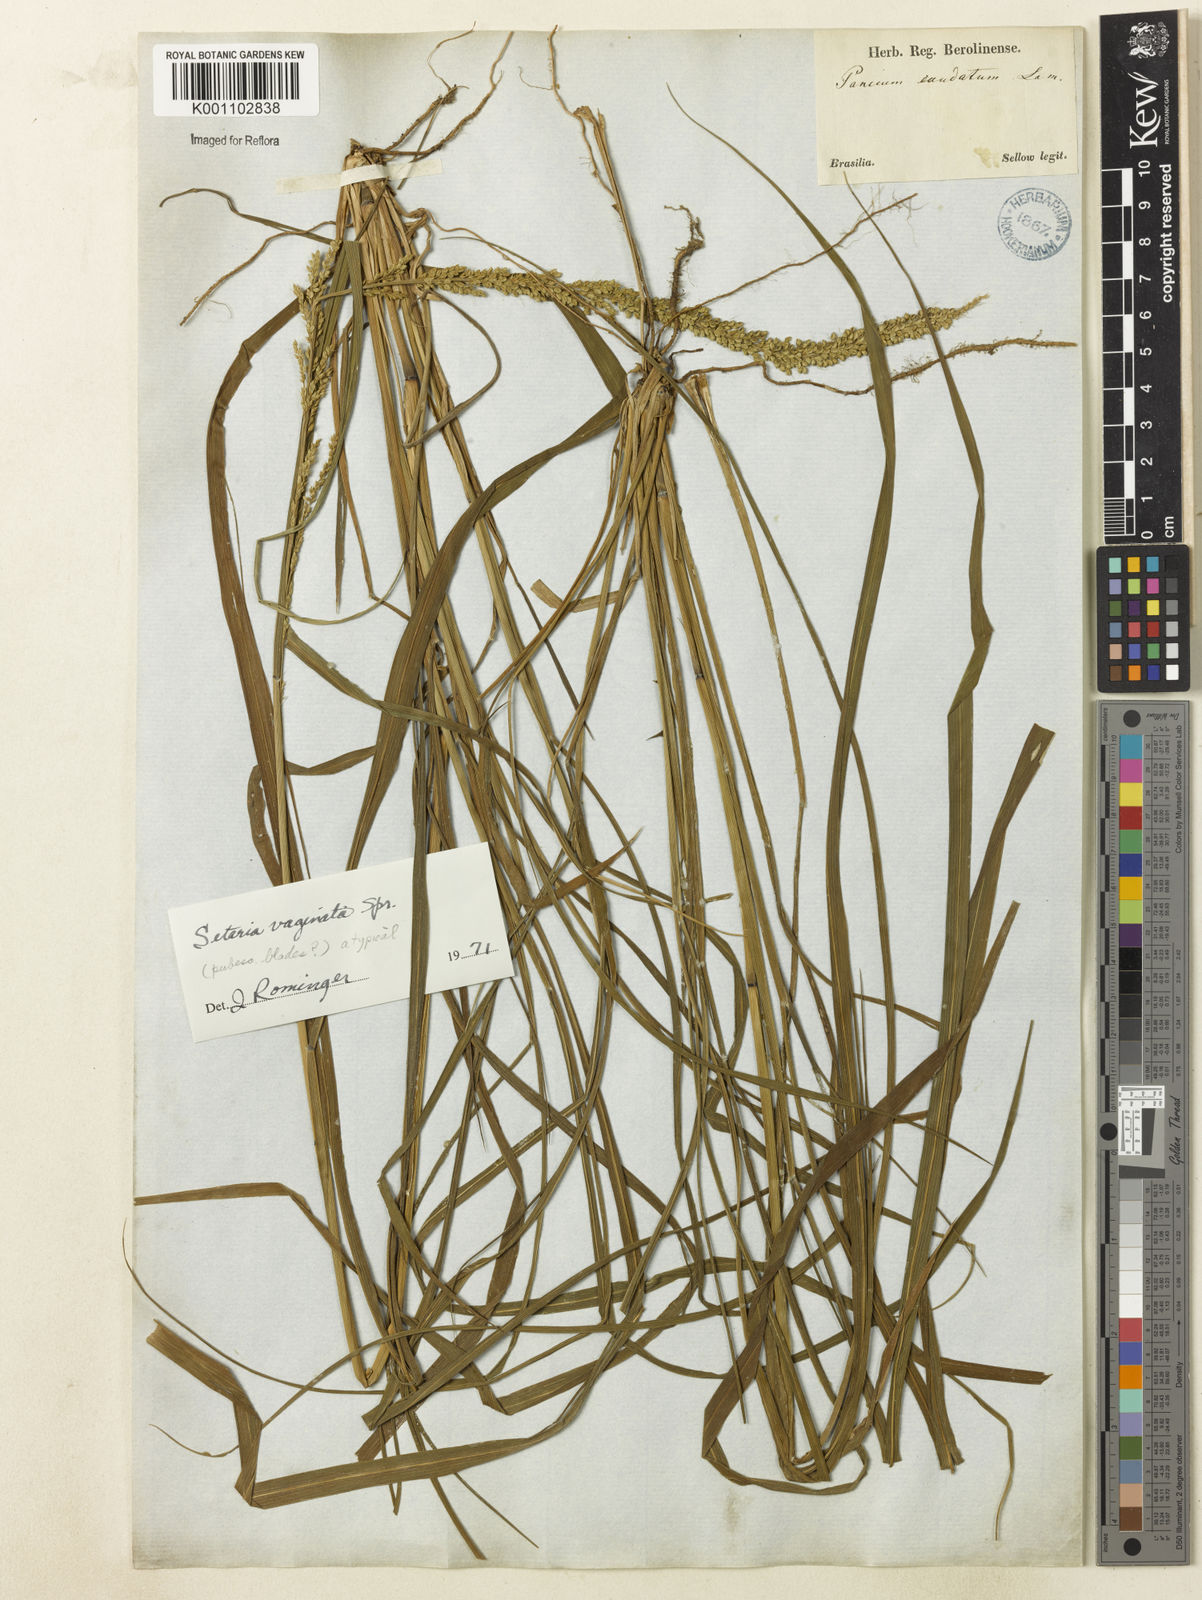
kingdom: Plantae
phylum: Tracheophyta
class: Liliopsida
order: Poales
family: Poaceae
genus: Setaria
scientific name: Setaria setosa
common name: West indies bristle grass
